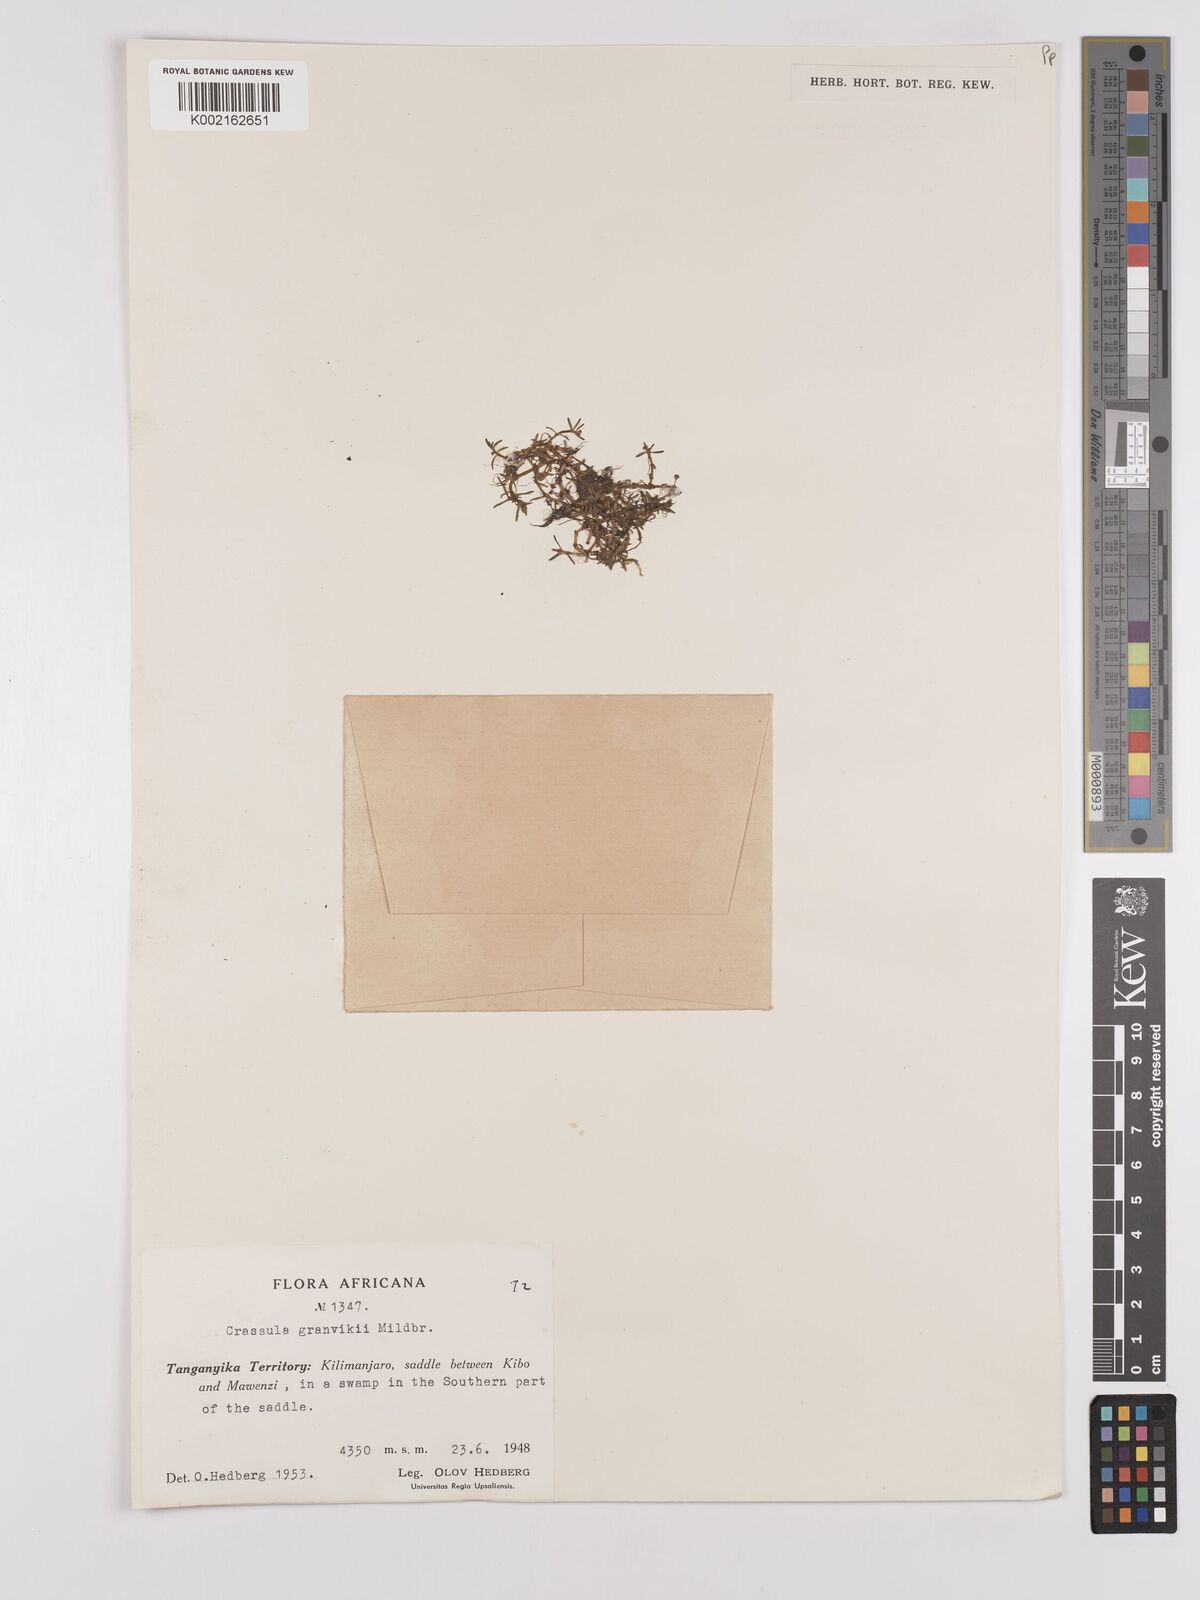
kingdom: Plantae
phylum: Tracheophyta
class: Magnoliopsida
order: Saxifragales
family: Crassulaceae
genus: Crassula
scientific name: Crassula granvikii
